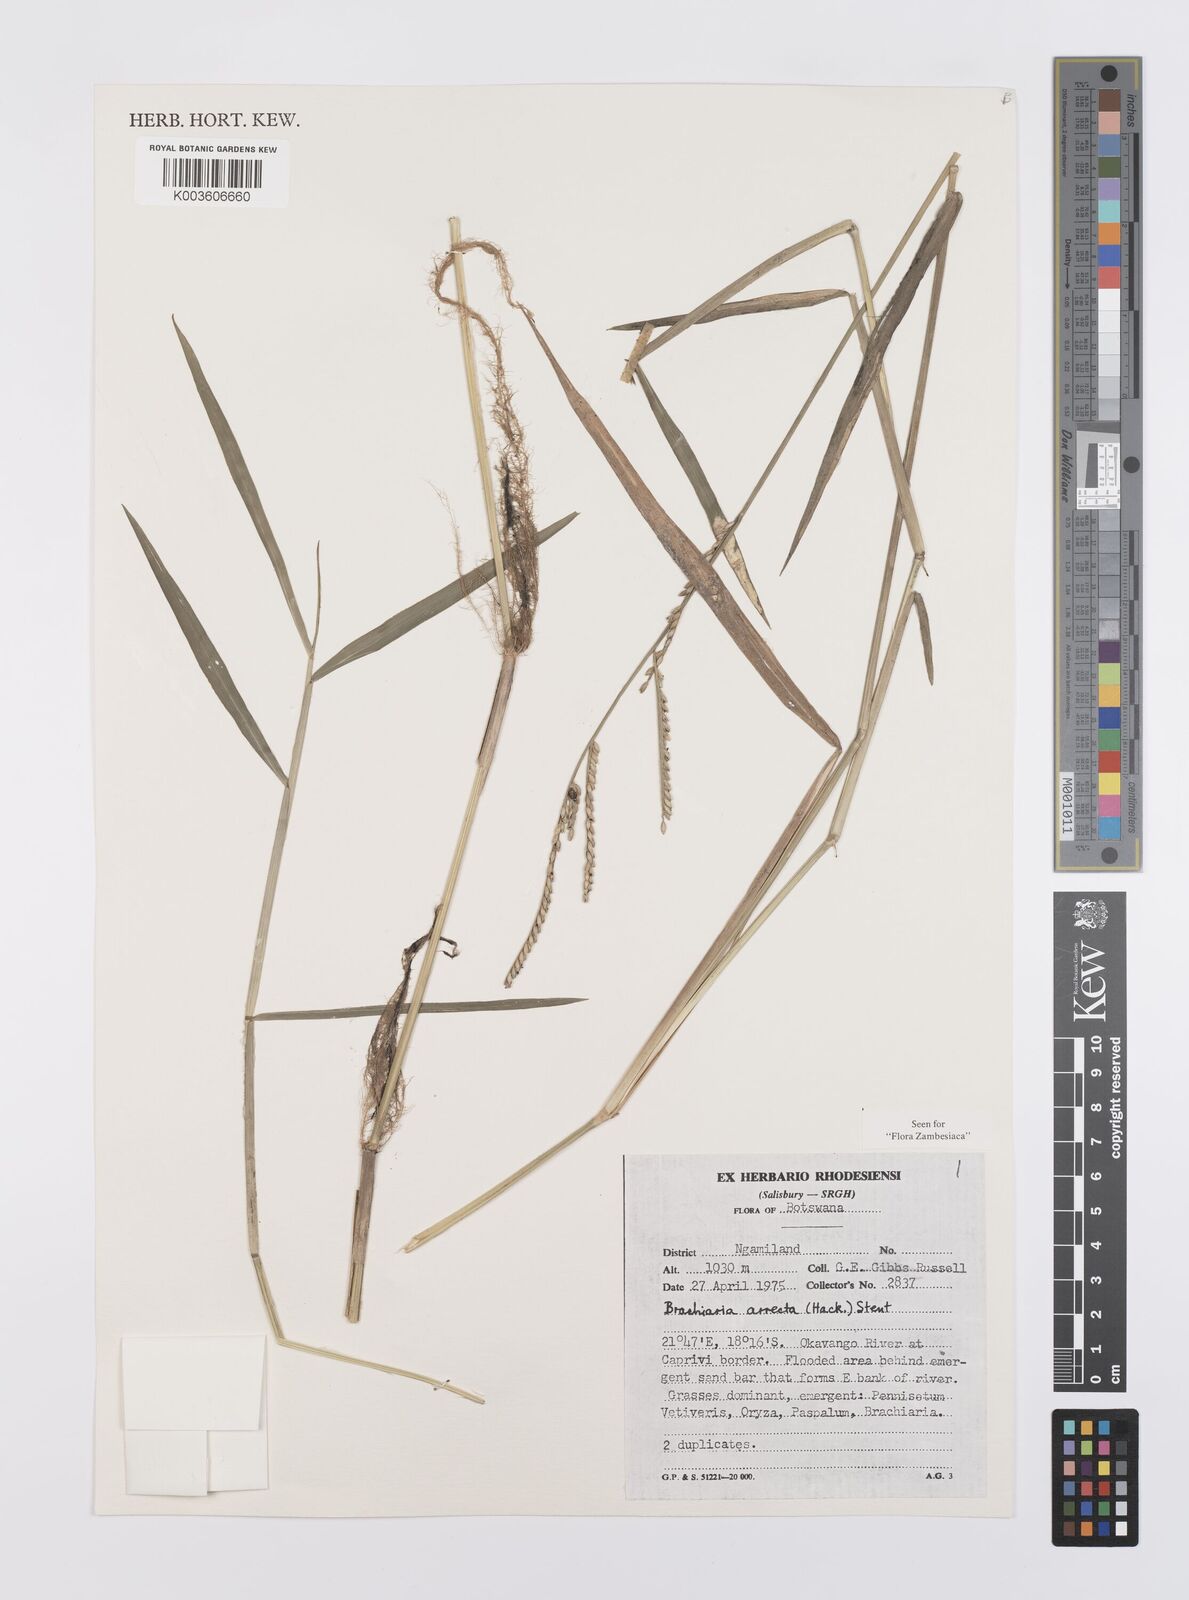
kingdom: Plantae
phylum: Tracheophyta
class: Liliopsida
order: Poales
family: Poaceae
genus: Urochloa
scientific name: Urochloa arrecta
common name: African signalgrass
